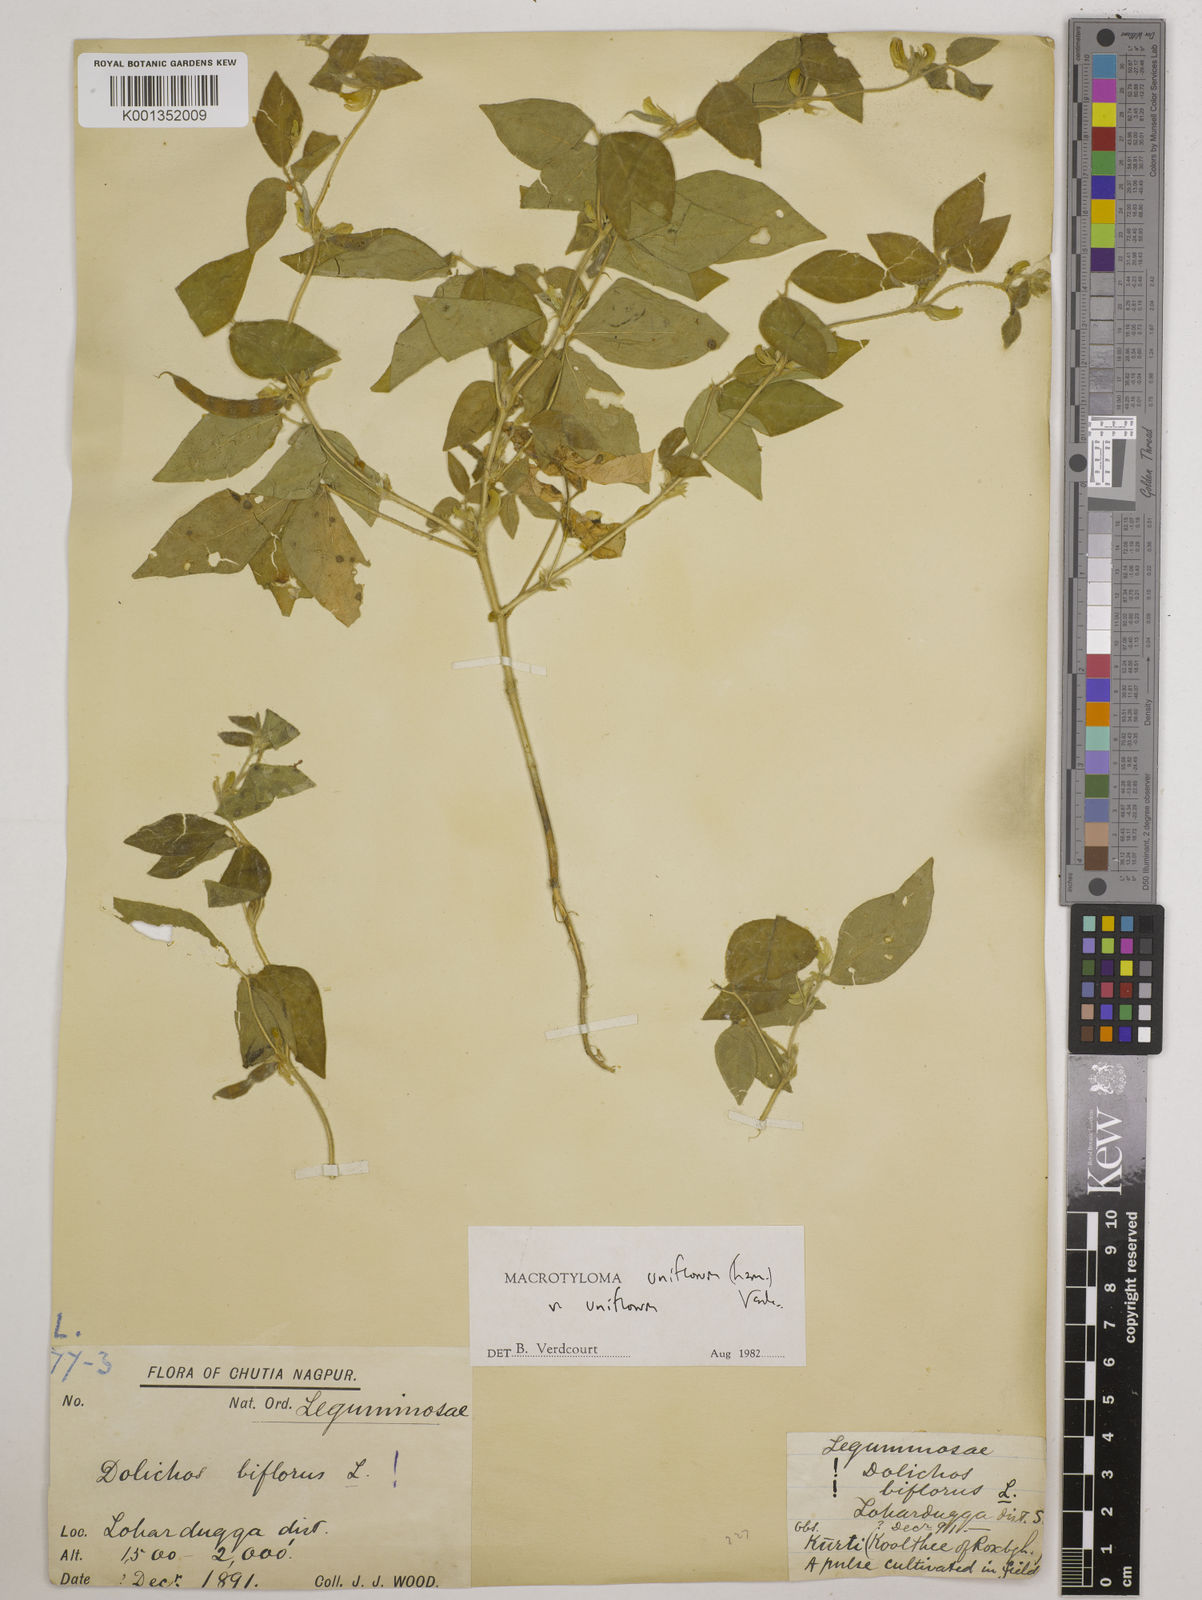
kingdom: Plantae
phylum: Tracheophyta
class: Magnoliopsida
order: Fabales
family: Fabaceae
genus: Macrotyloma
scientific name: Macrotyloma uniflorum
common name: Horse gram
